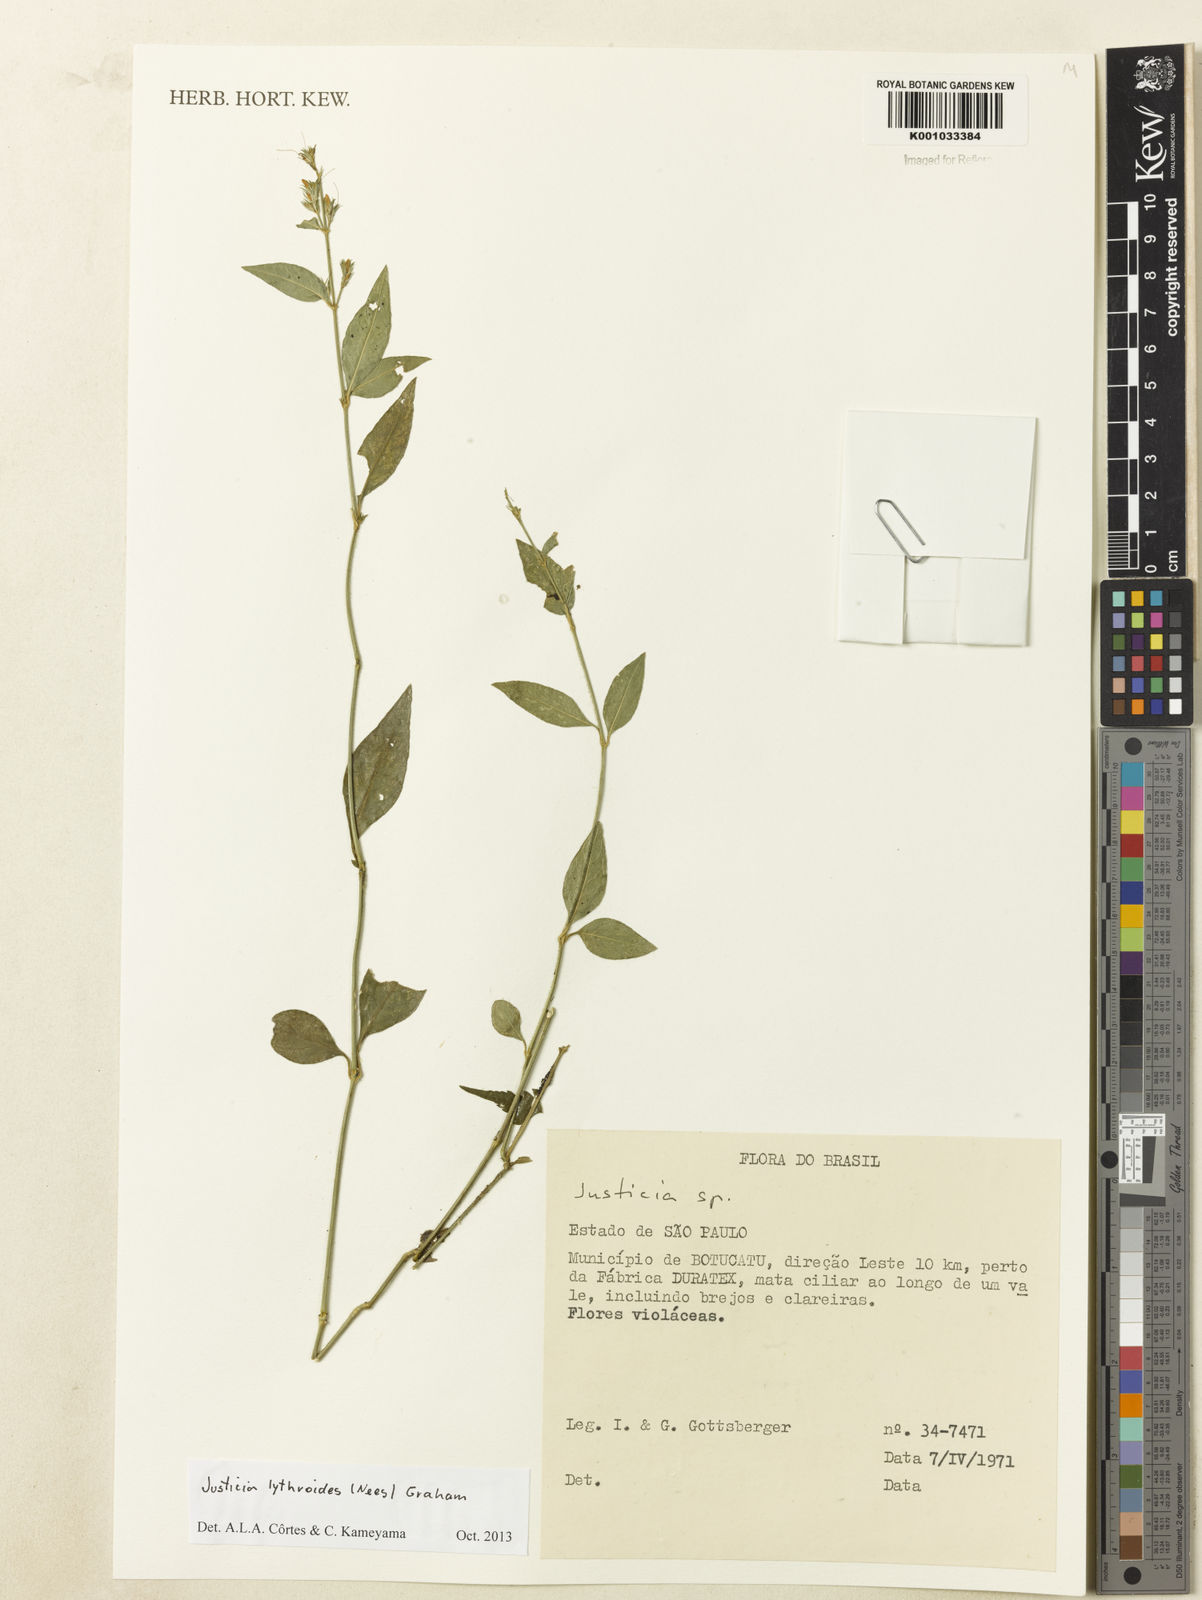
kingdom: Plantae
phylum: Tracheophyta
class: Magnoliopsida
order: Lamiales
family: Acanthaceae
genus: Justicia
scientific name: Justicia lythroides
